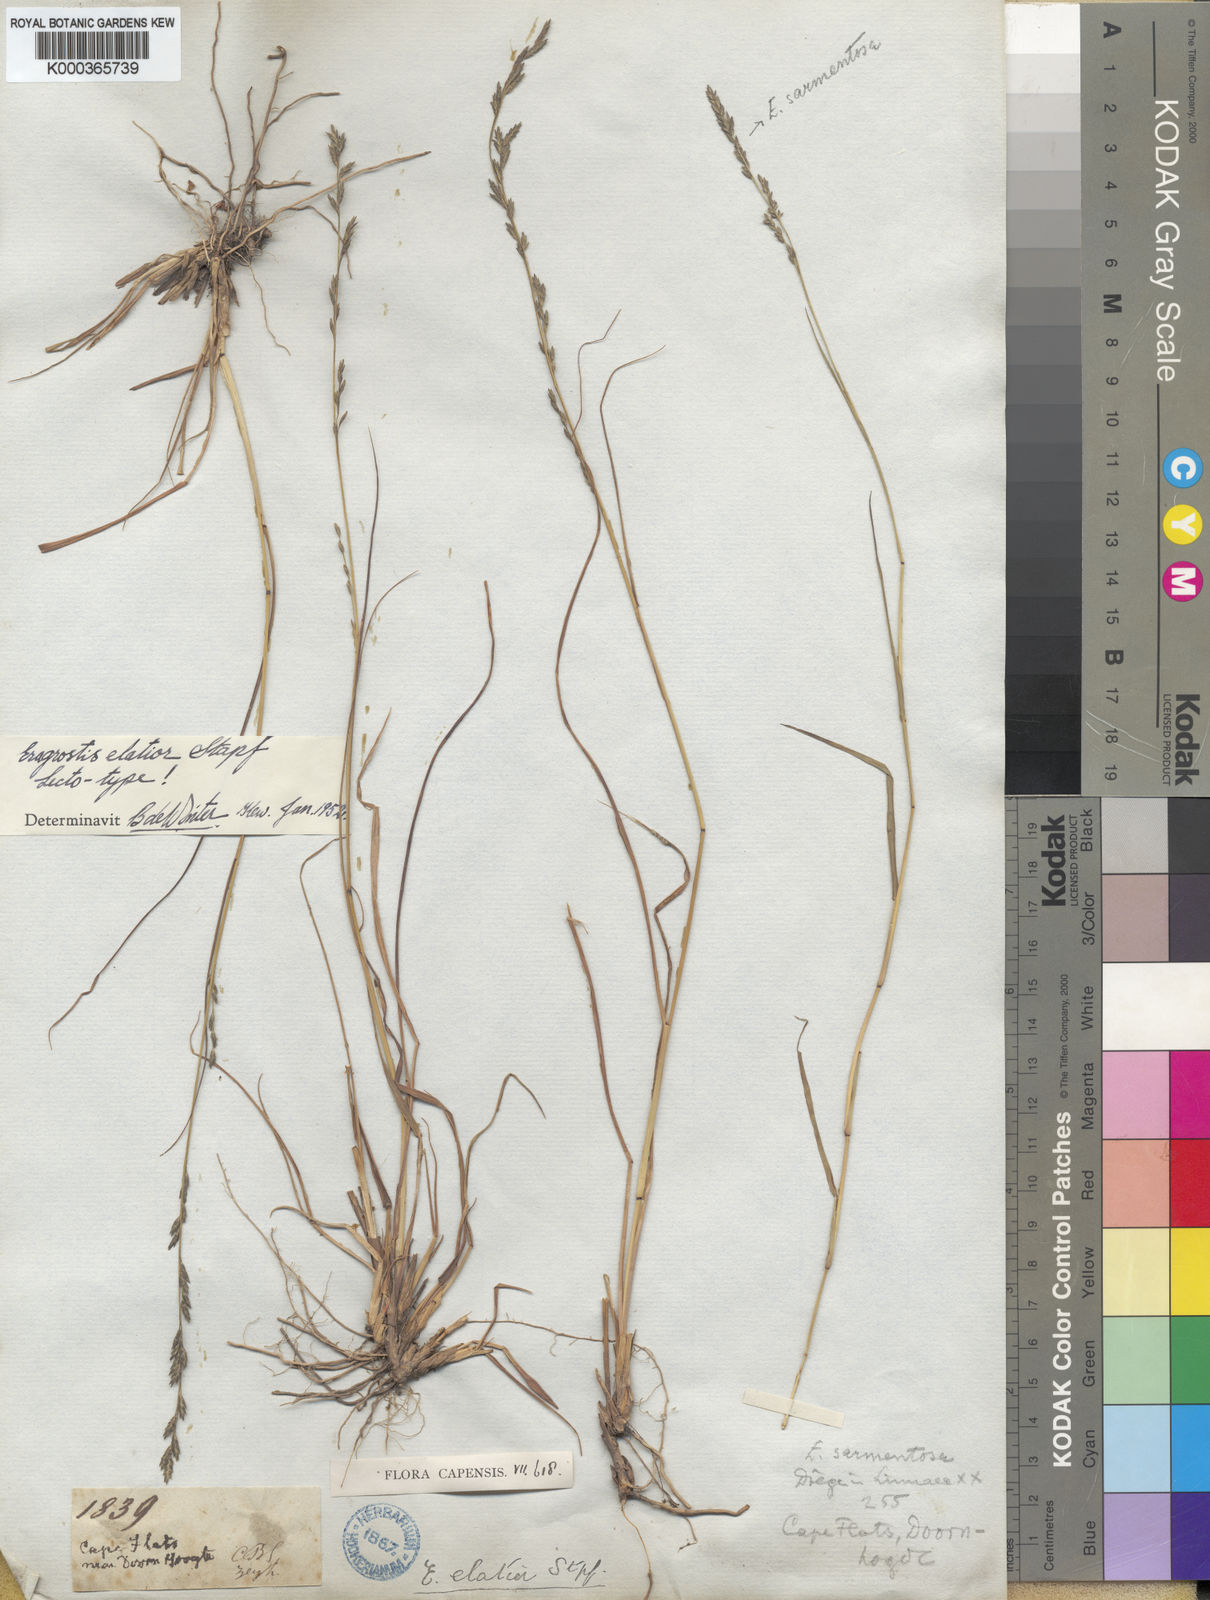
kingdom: Plantae
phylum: Tracheophyta
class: Liliopsida
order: Poales
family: Poaceae
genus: Eragrostis
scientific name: Eragrostis elatior
